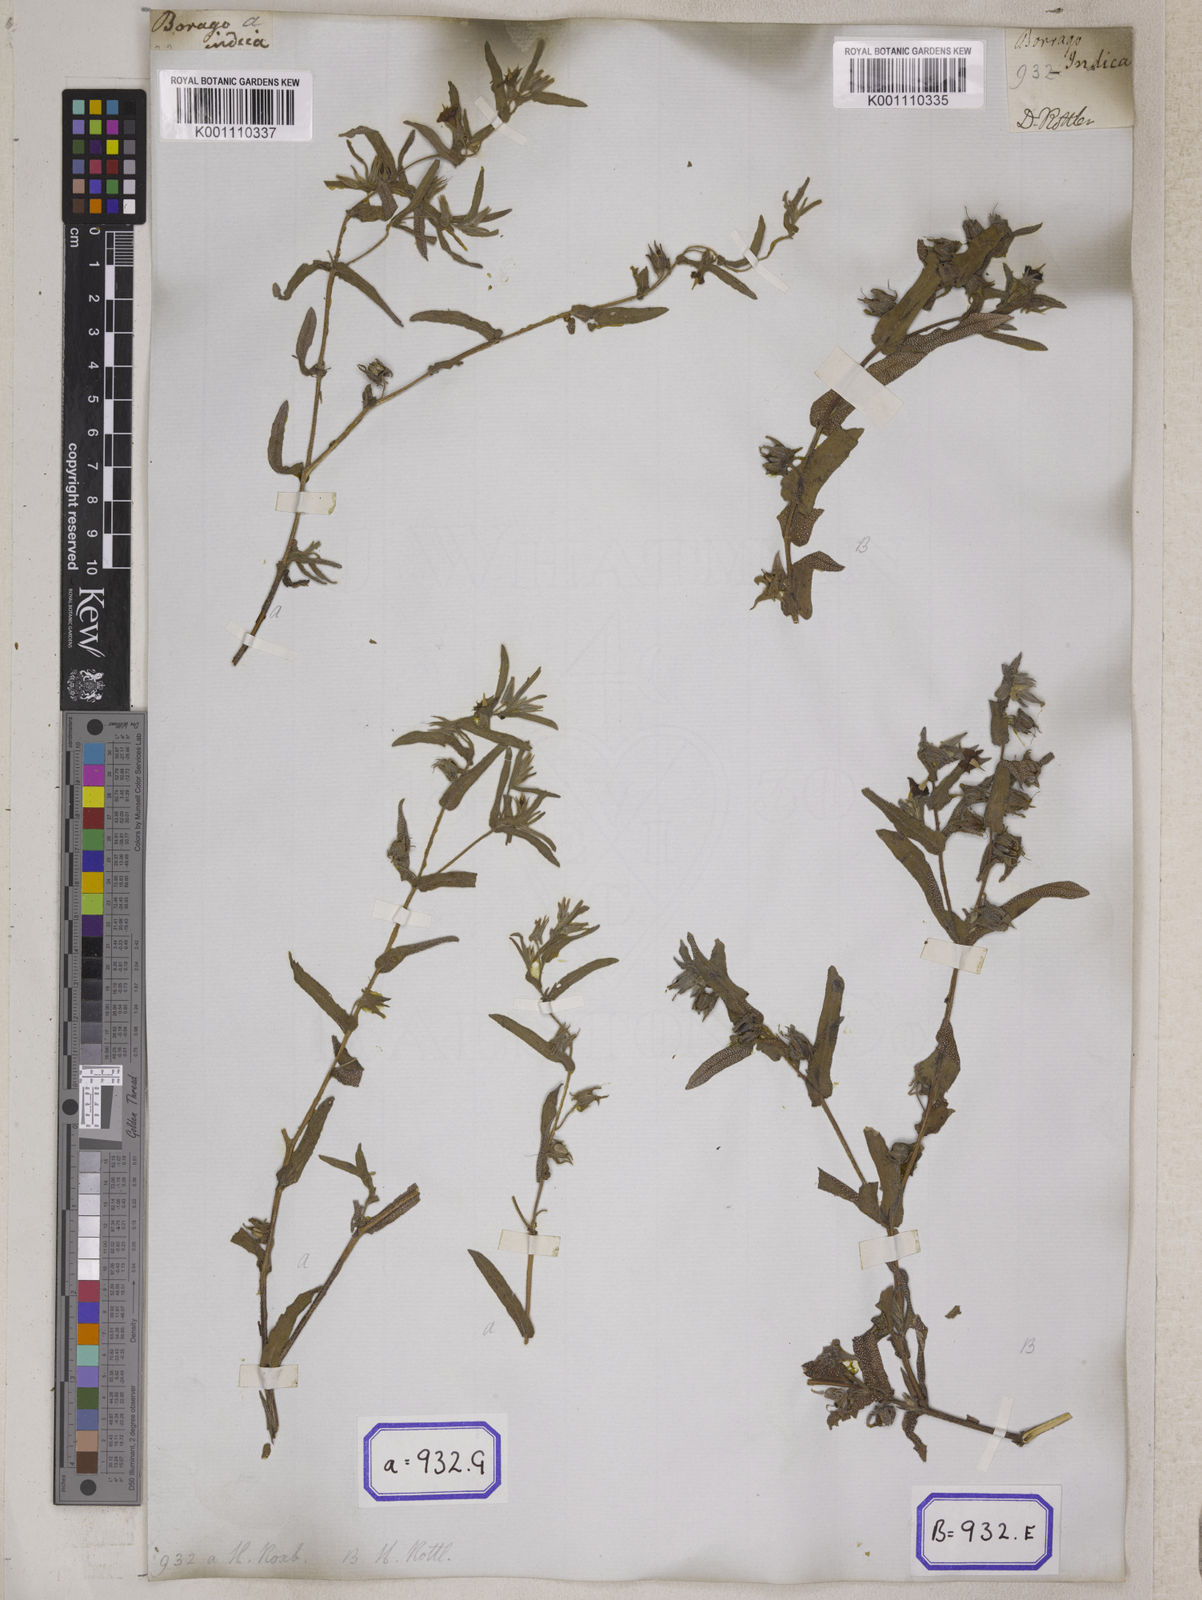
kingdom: Plantae
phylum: Tracheophyta
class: Magnoliopsida
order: Boraginales
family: Boraginaceae
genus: Trichodesma
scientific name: Trichodesma
